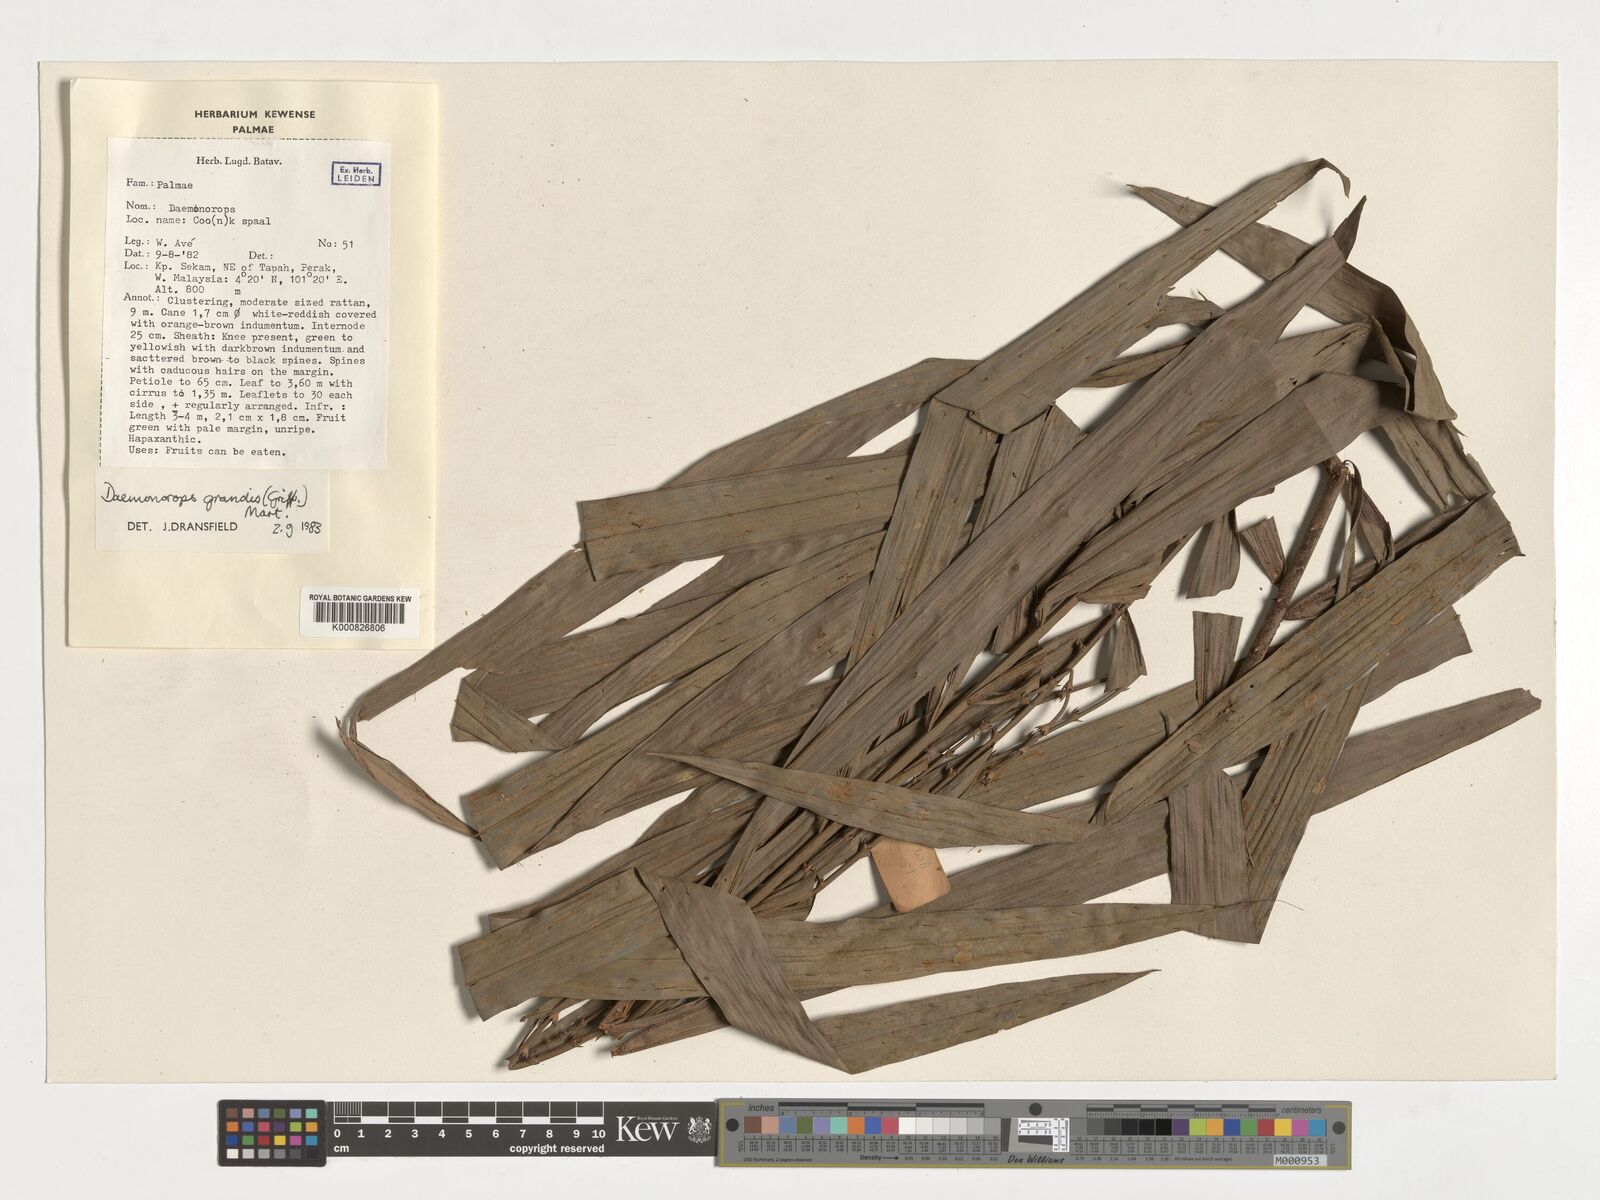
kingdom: Plantae
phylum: Tracheophyta
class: Liliopsida
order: Arecales
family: Arecaceae
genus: Calamus
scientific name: Calamus melanochaetes
